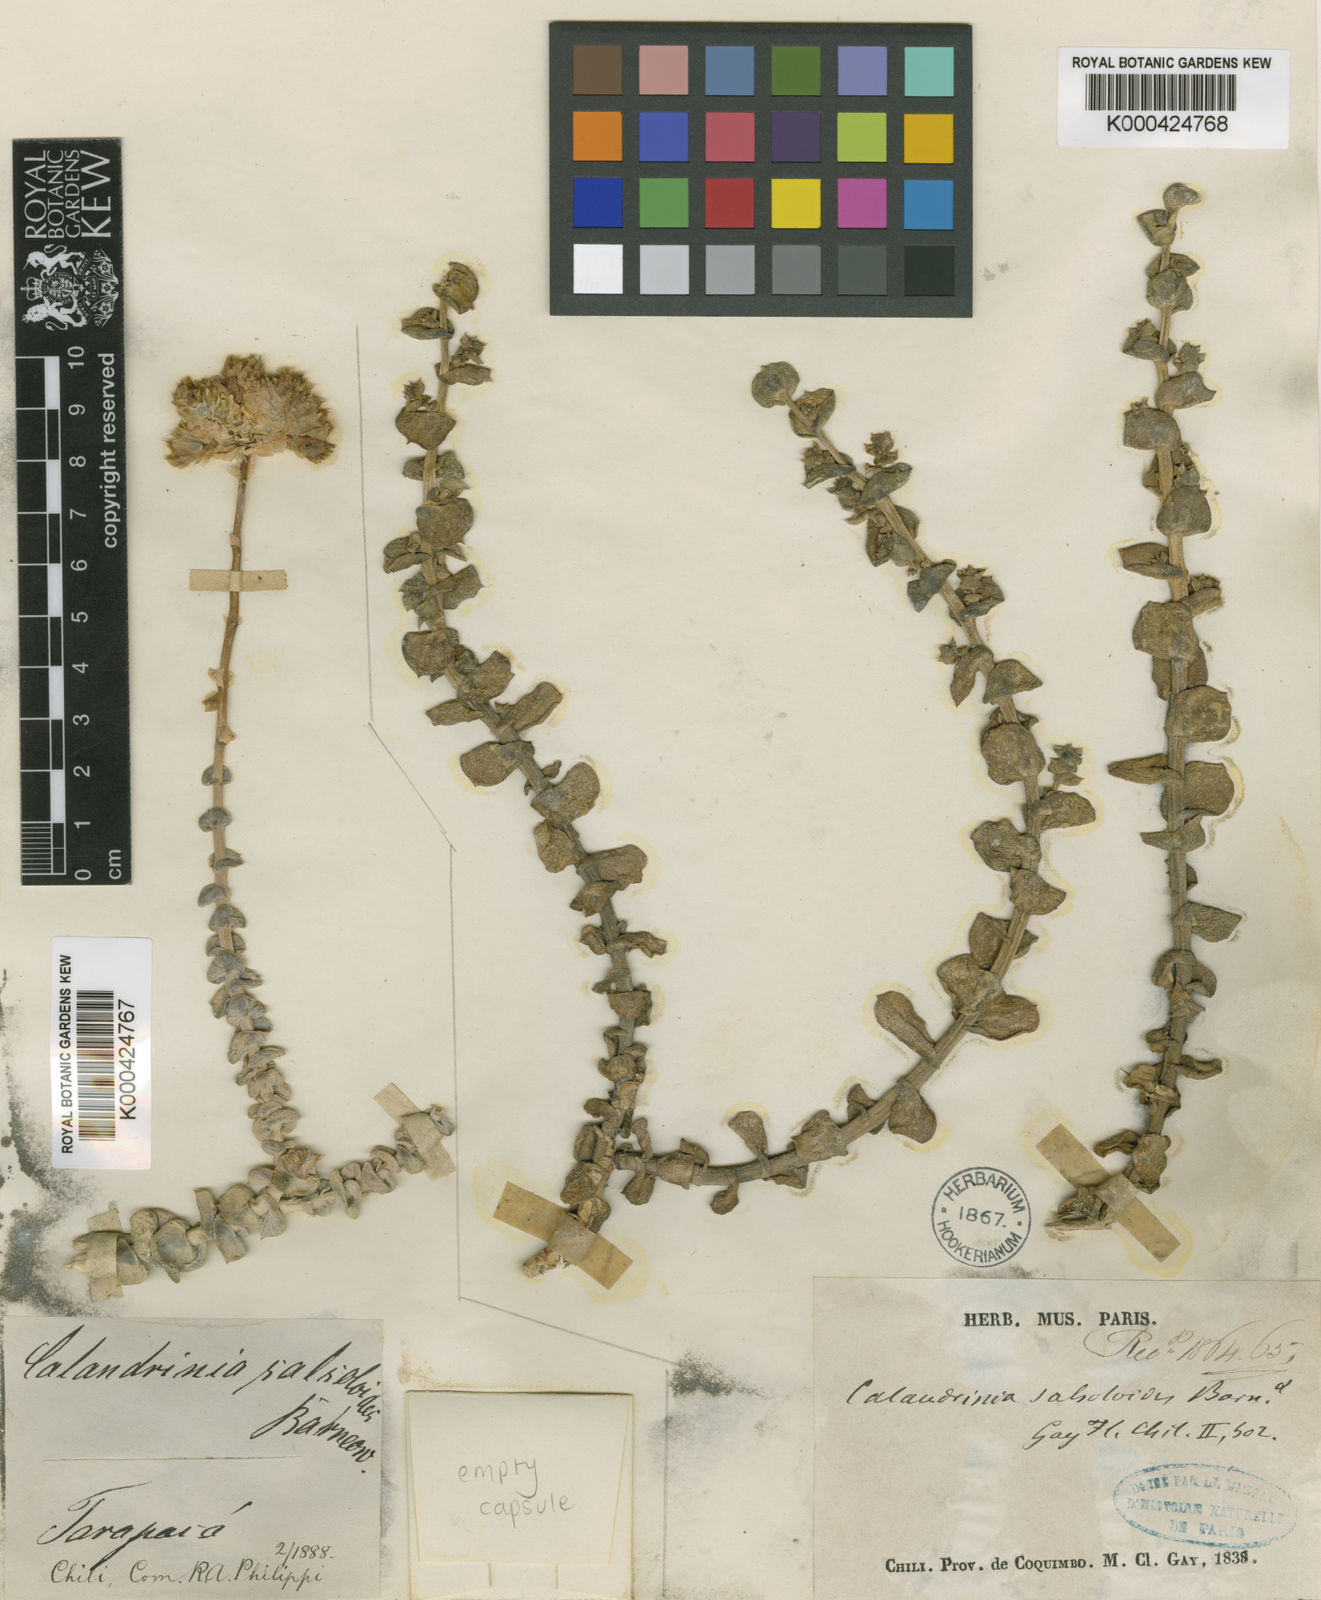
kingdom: Plantae
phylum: Tracheophyta
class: Magnoliopsida
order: Caryophyllales
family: Montiaceae
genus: Cistanthe
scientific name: Cistanthe
